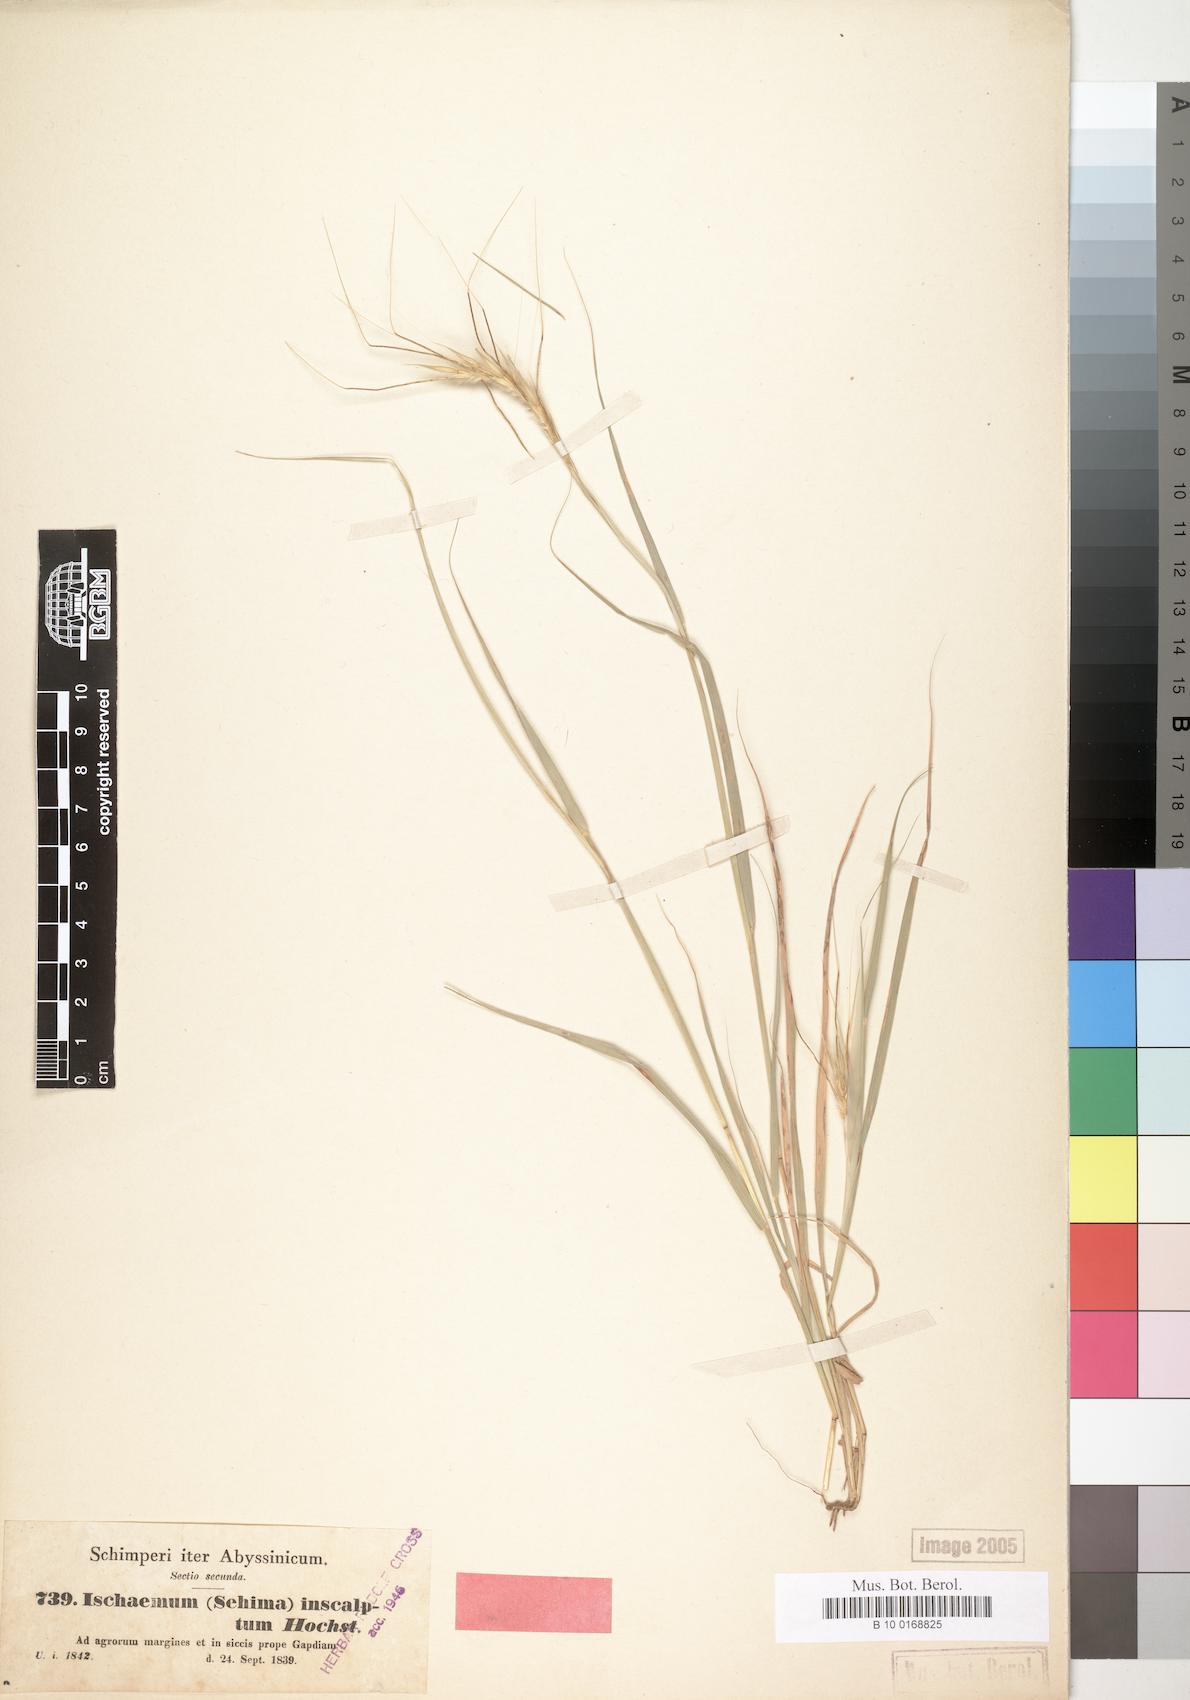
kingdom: Plantae
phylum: Tracheophyta
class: Liliopsida
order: Poales
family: Poaceae
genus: Sehima
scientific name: Sehima ischaemoides
